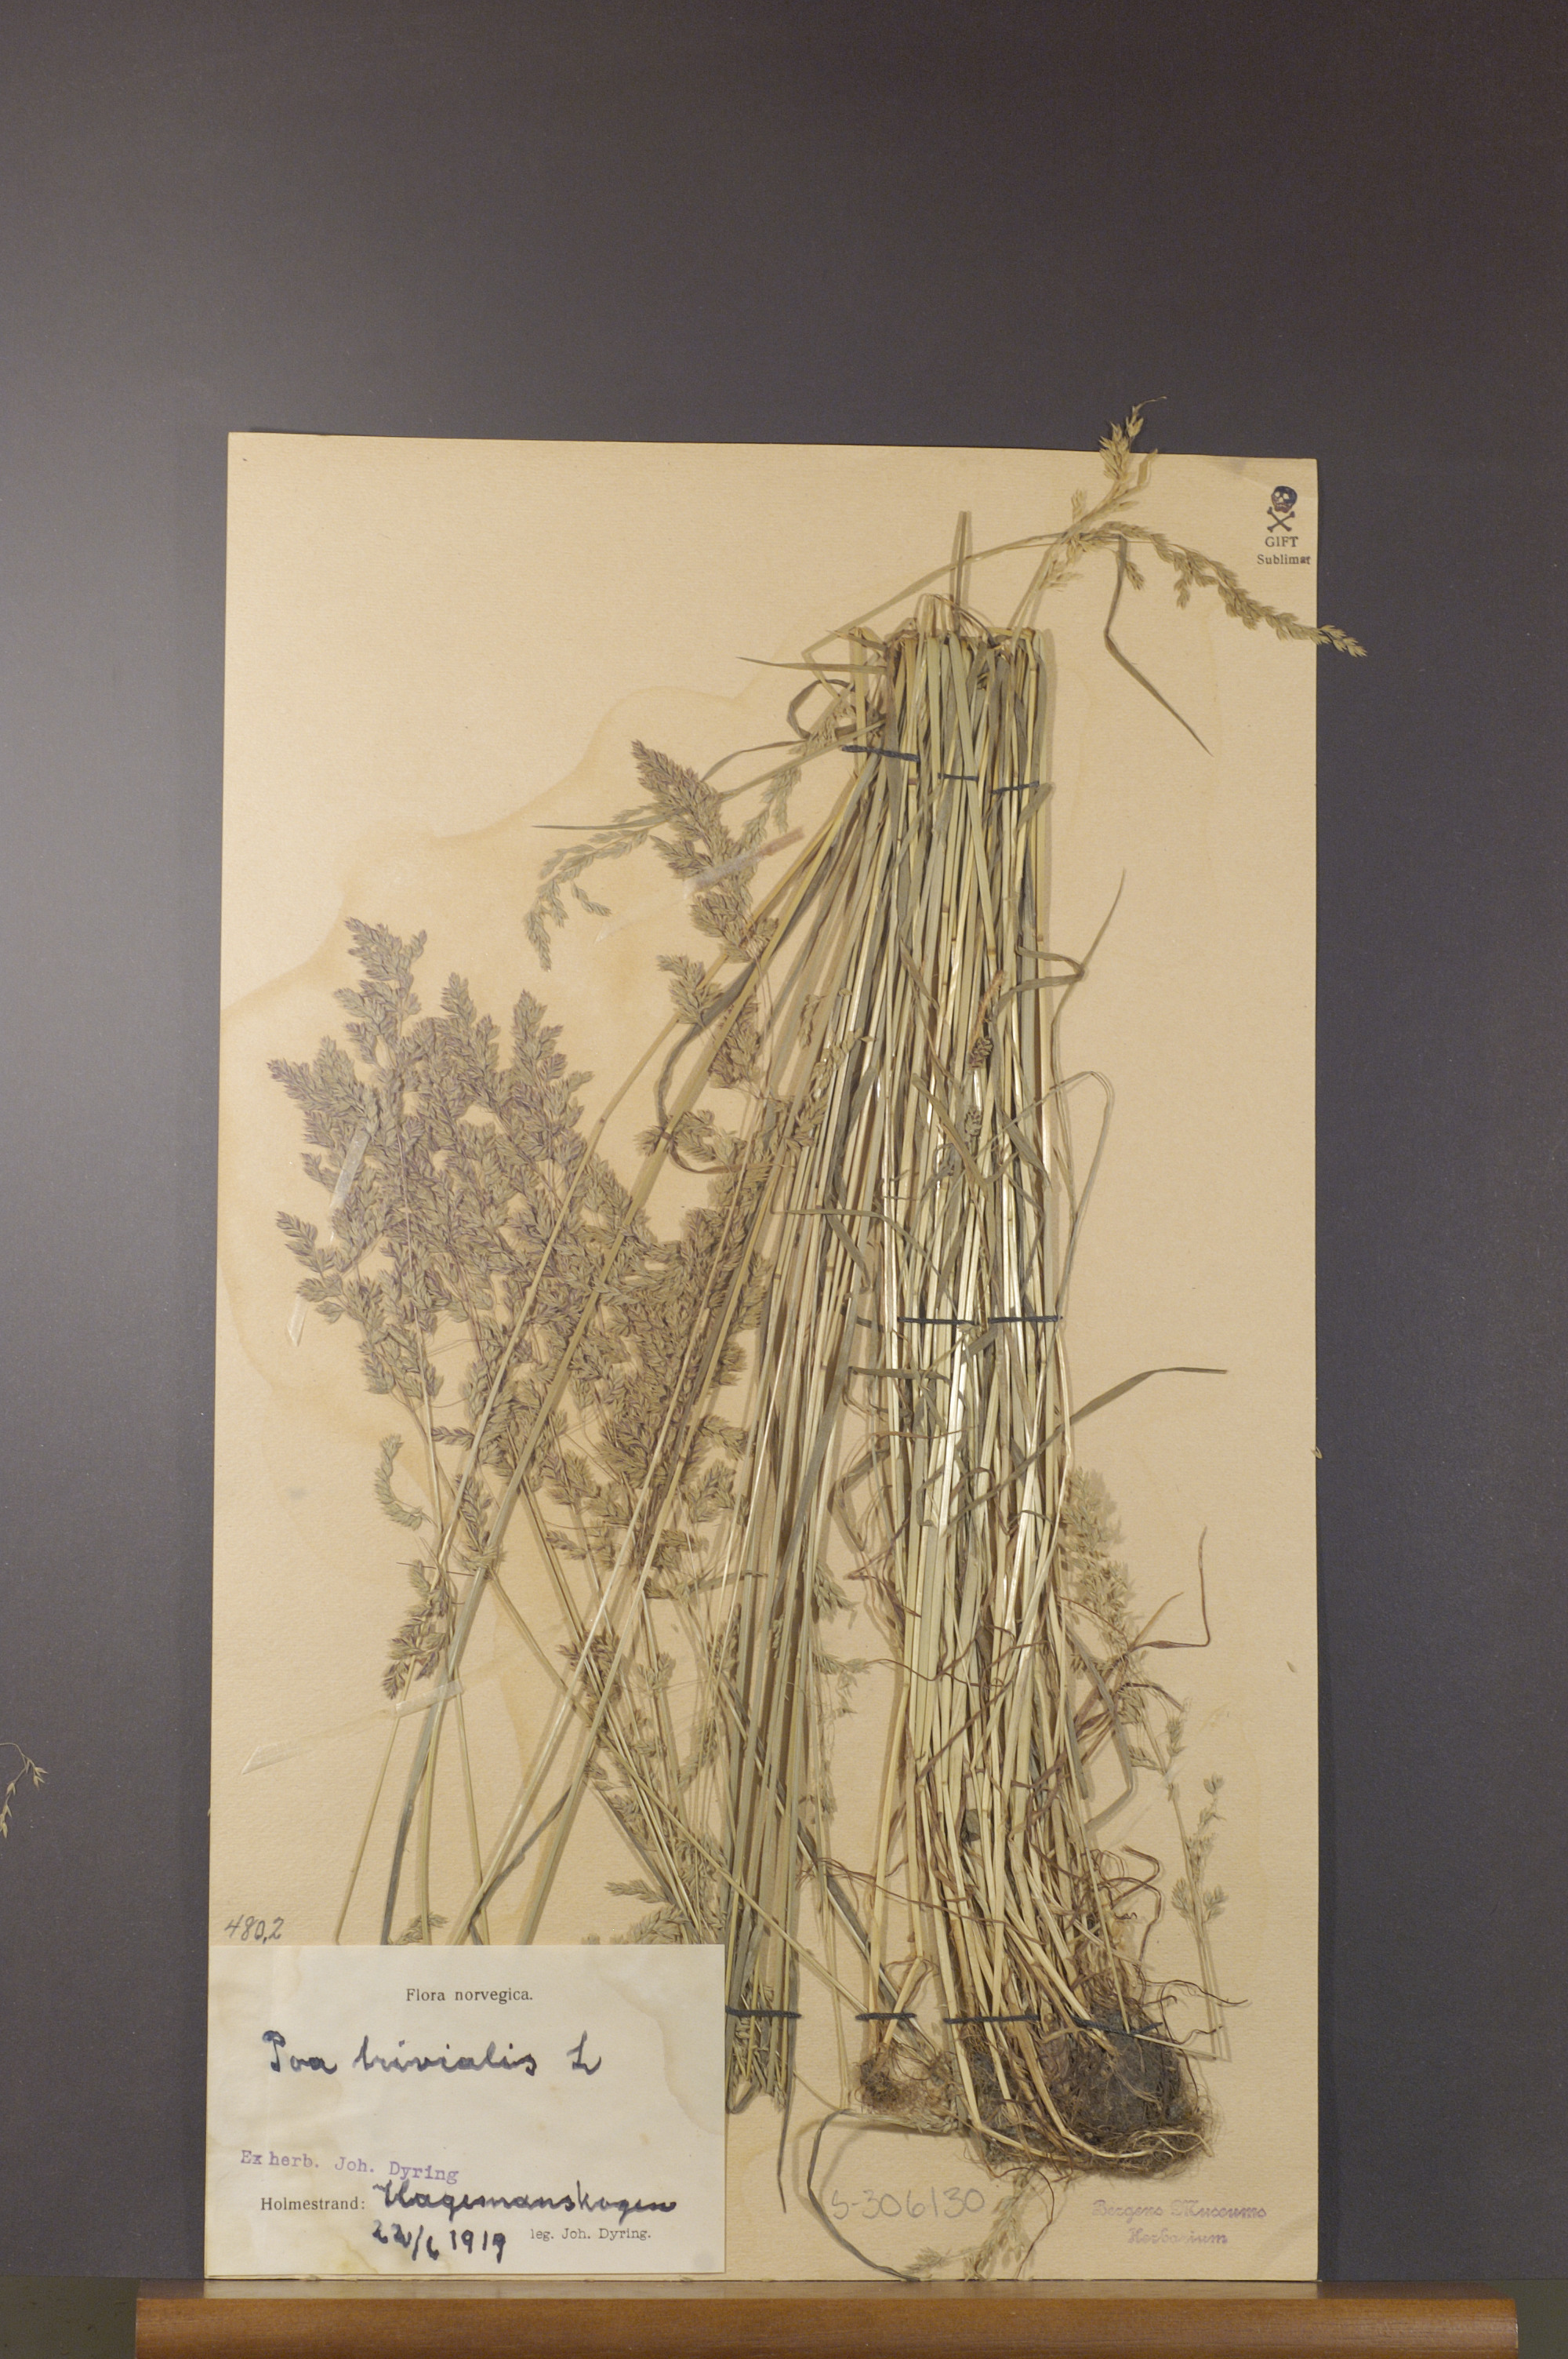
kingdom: Plantae
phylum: Tracheophyta
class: Liliopsida
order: Poales
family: Poaceae
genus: Poa
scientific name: Poa trivialis
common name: Rough bluegrass
